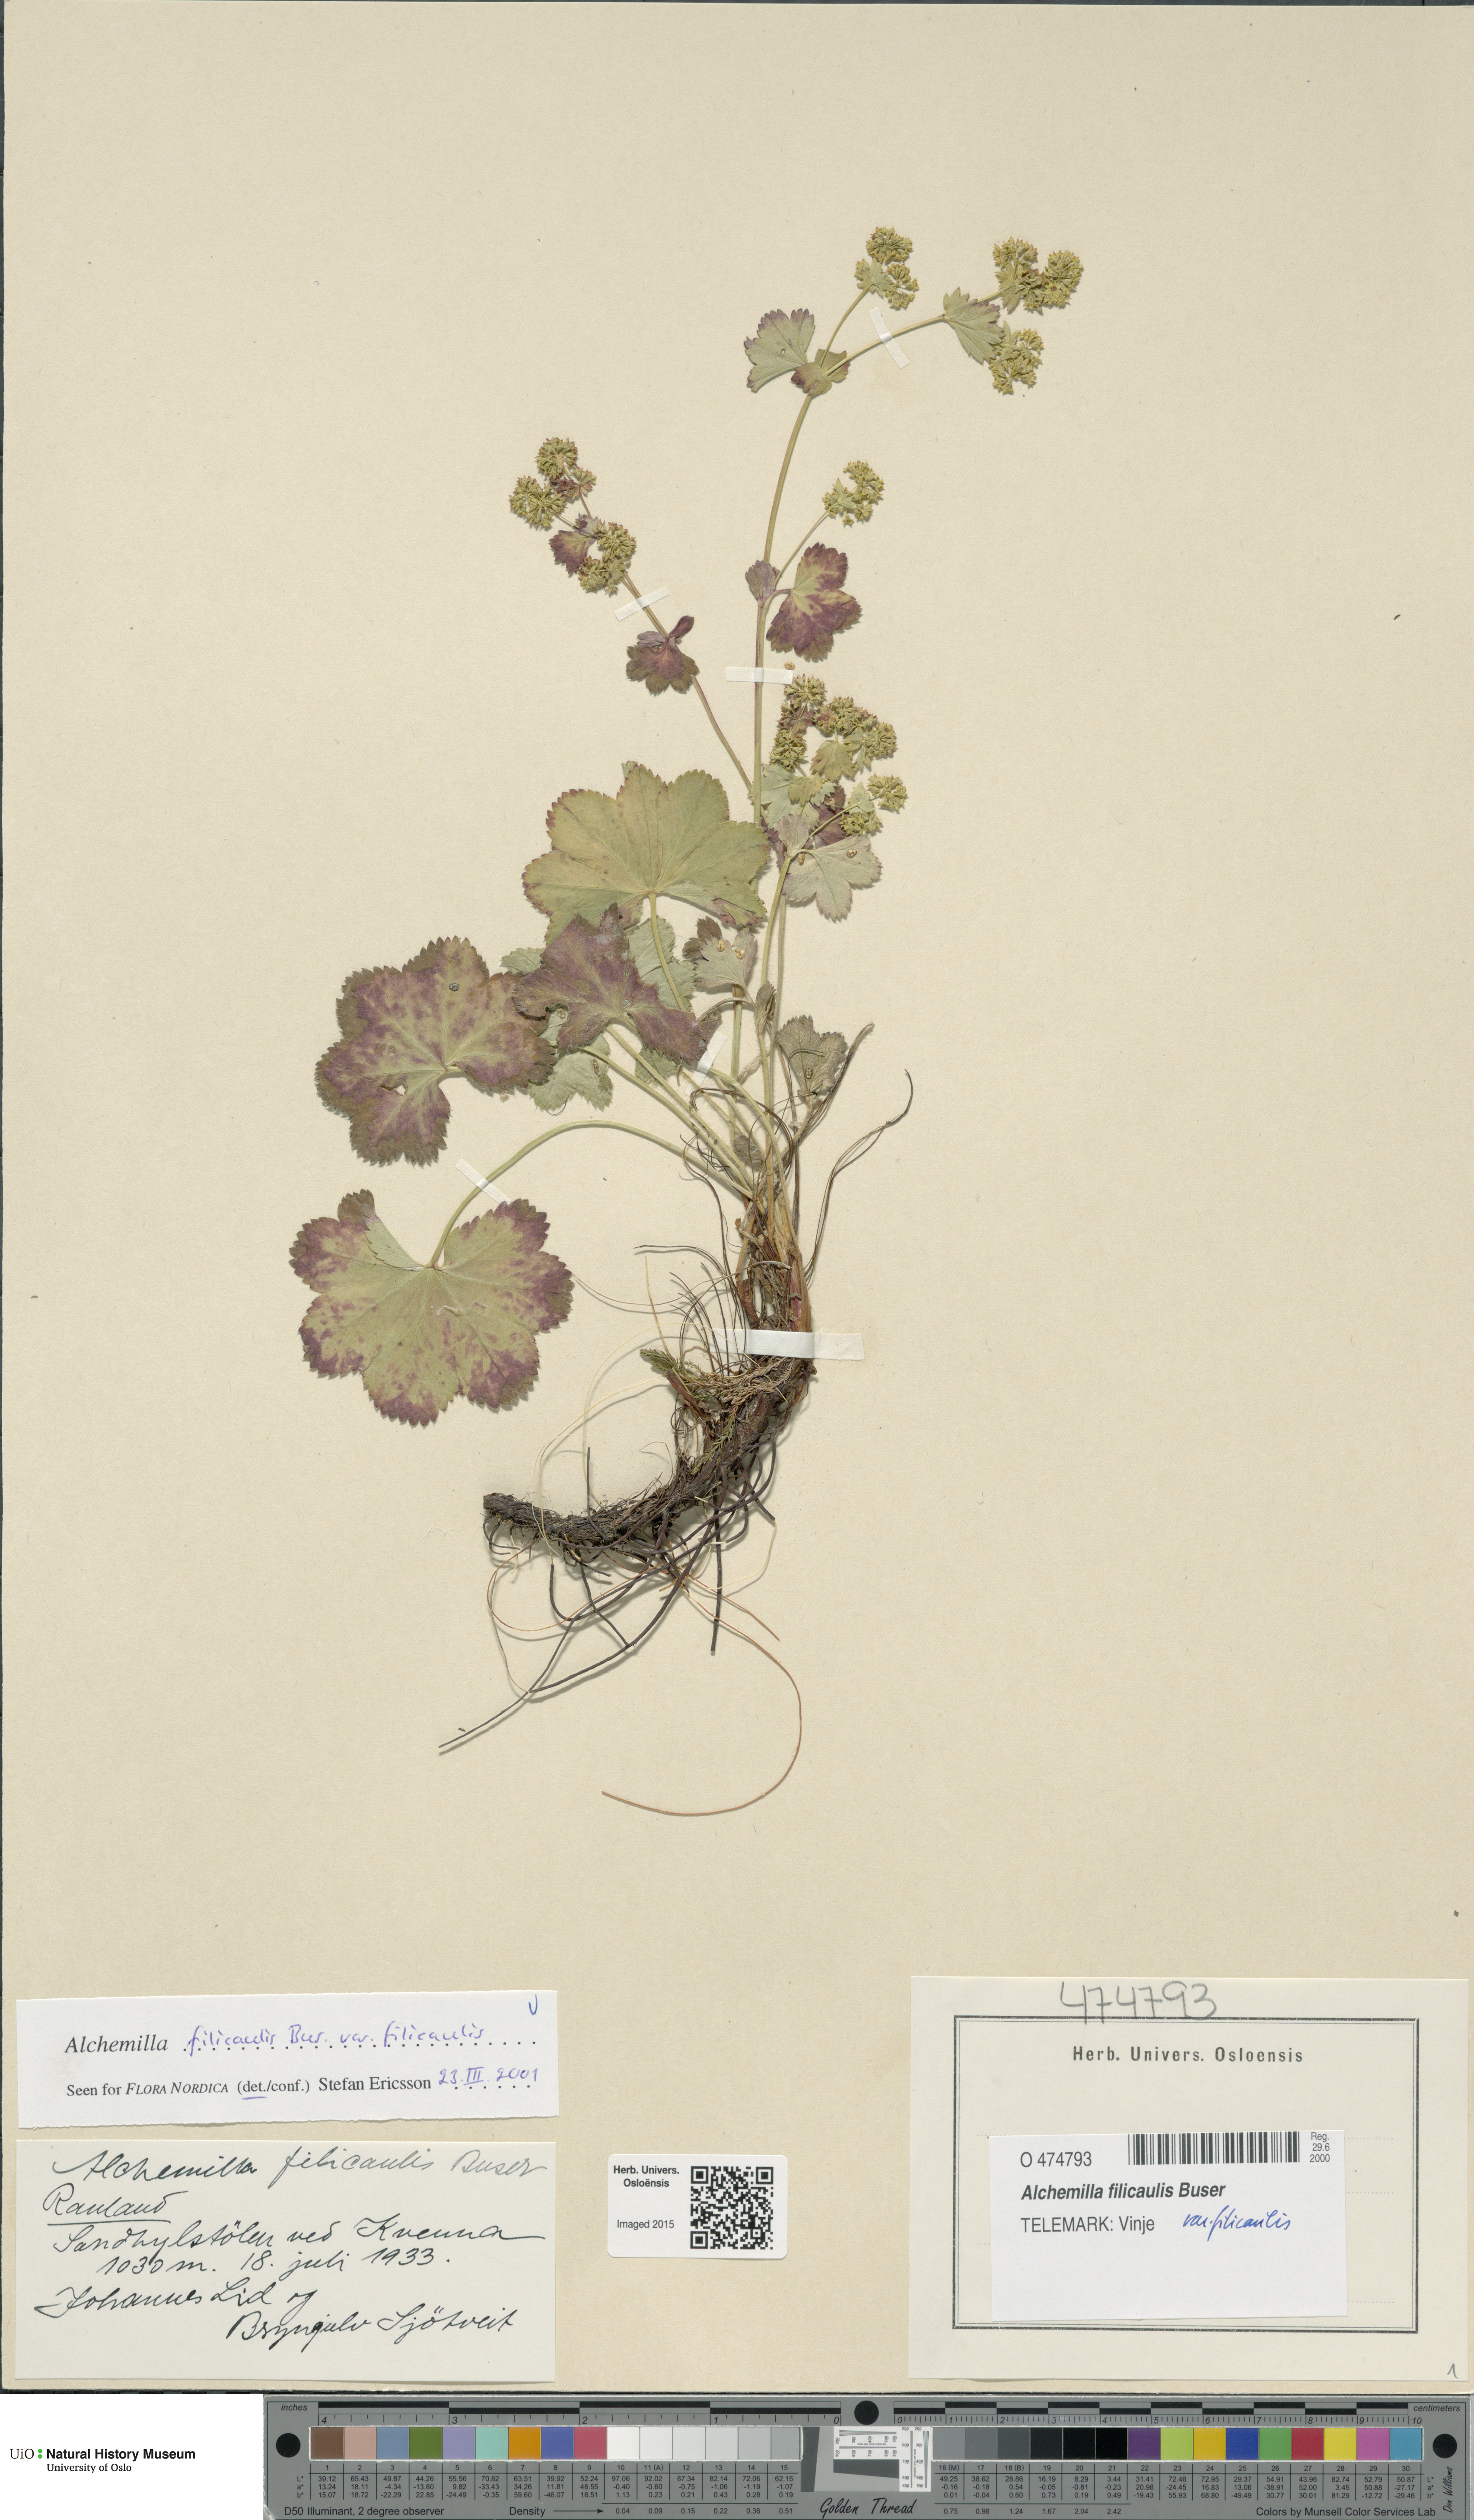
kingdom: Plantae
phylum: Tracheophyta
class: Magnoliopsida
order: Rosales
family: Rosaceae
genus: Alchemilla
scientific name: Alchemilla filicaulis
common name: Hairy lady's-mantle
